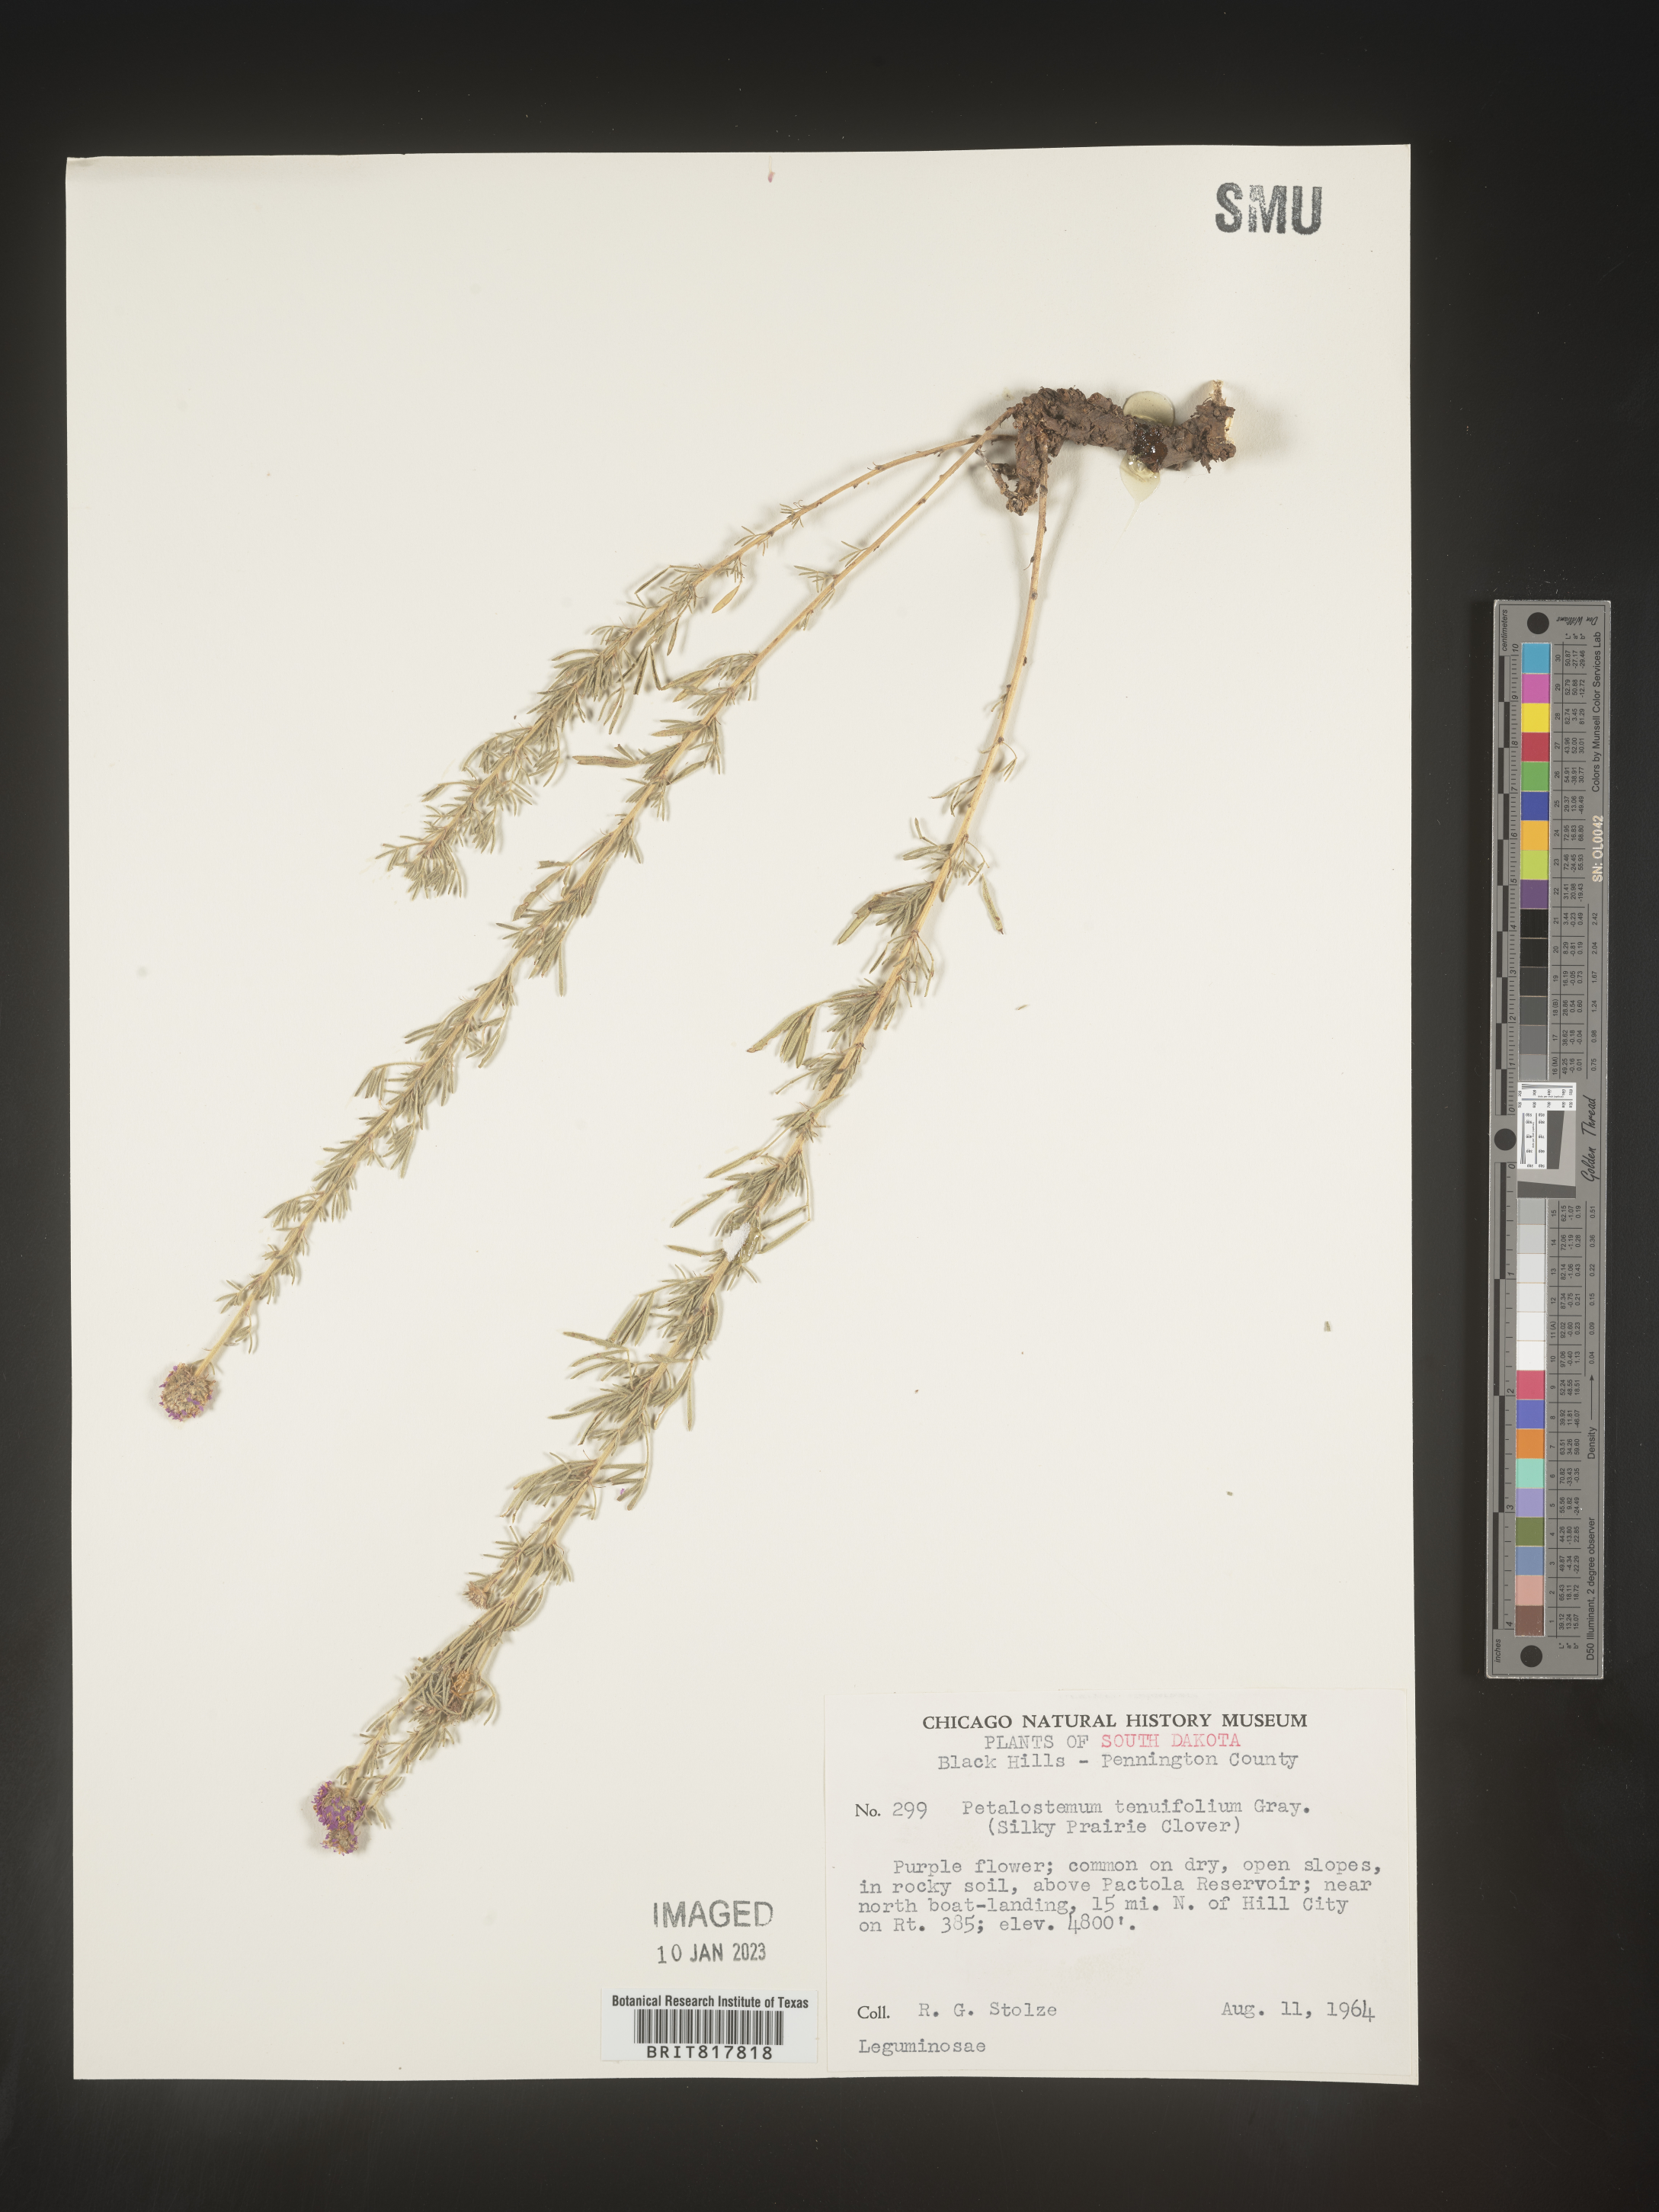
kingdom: Plantae
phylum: Tracheophyta
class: Magnoliopsida
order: Fabales
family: Fabaceae
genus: Dalea
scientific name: Dalea
